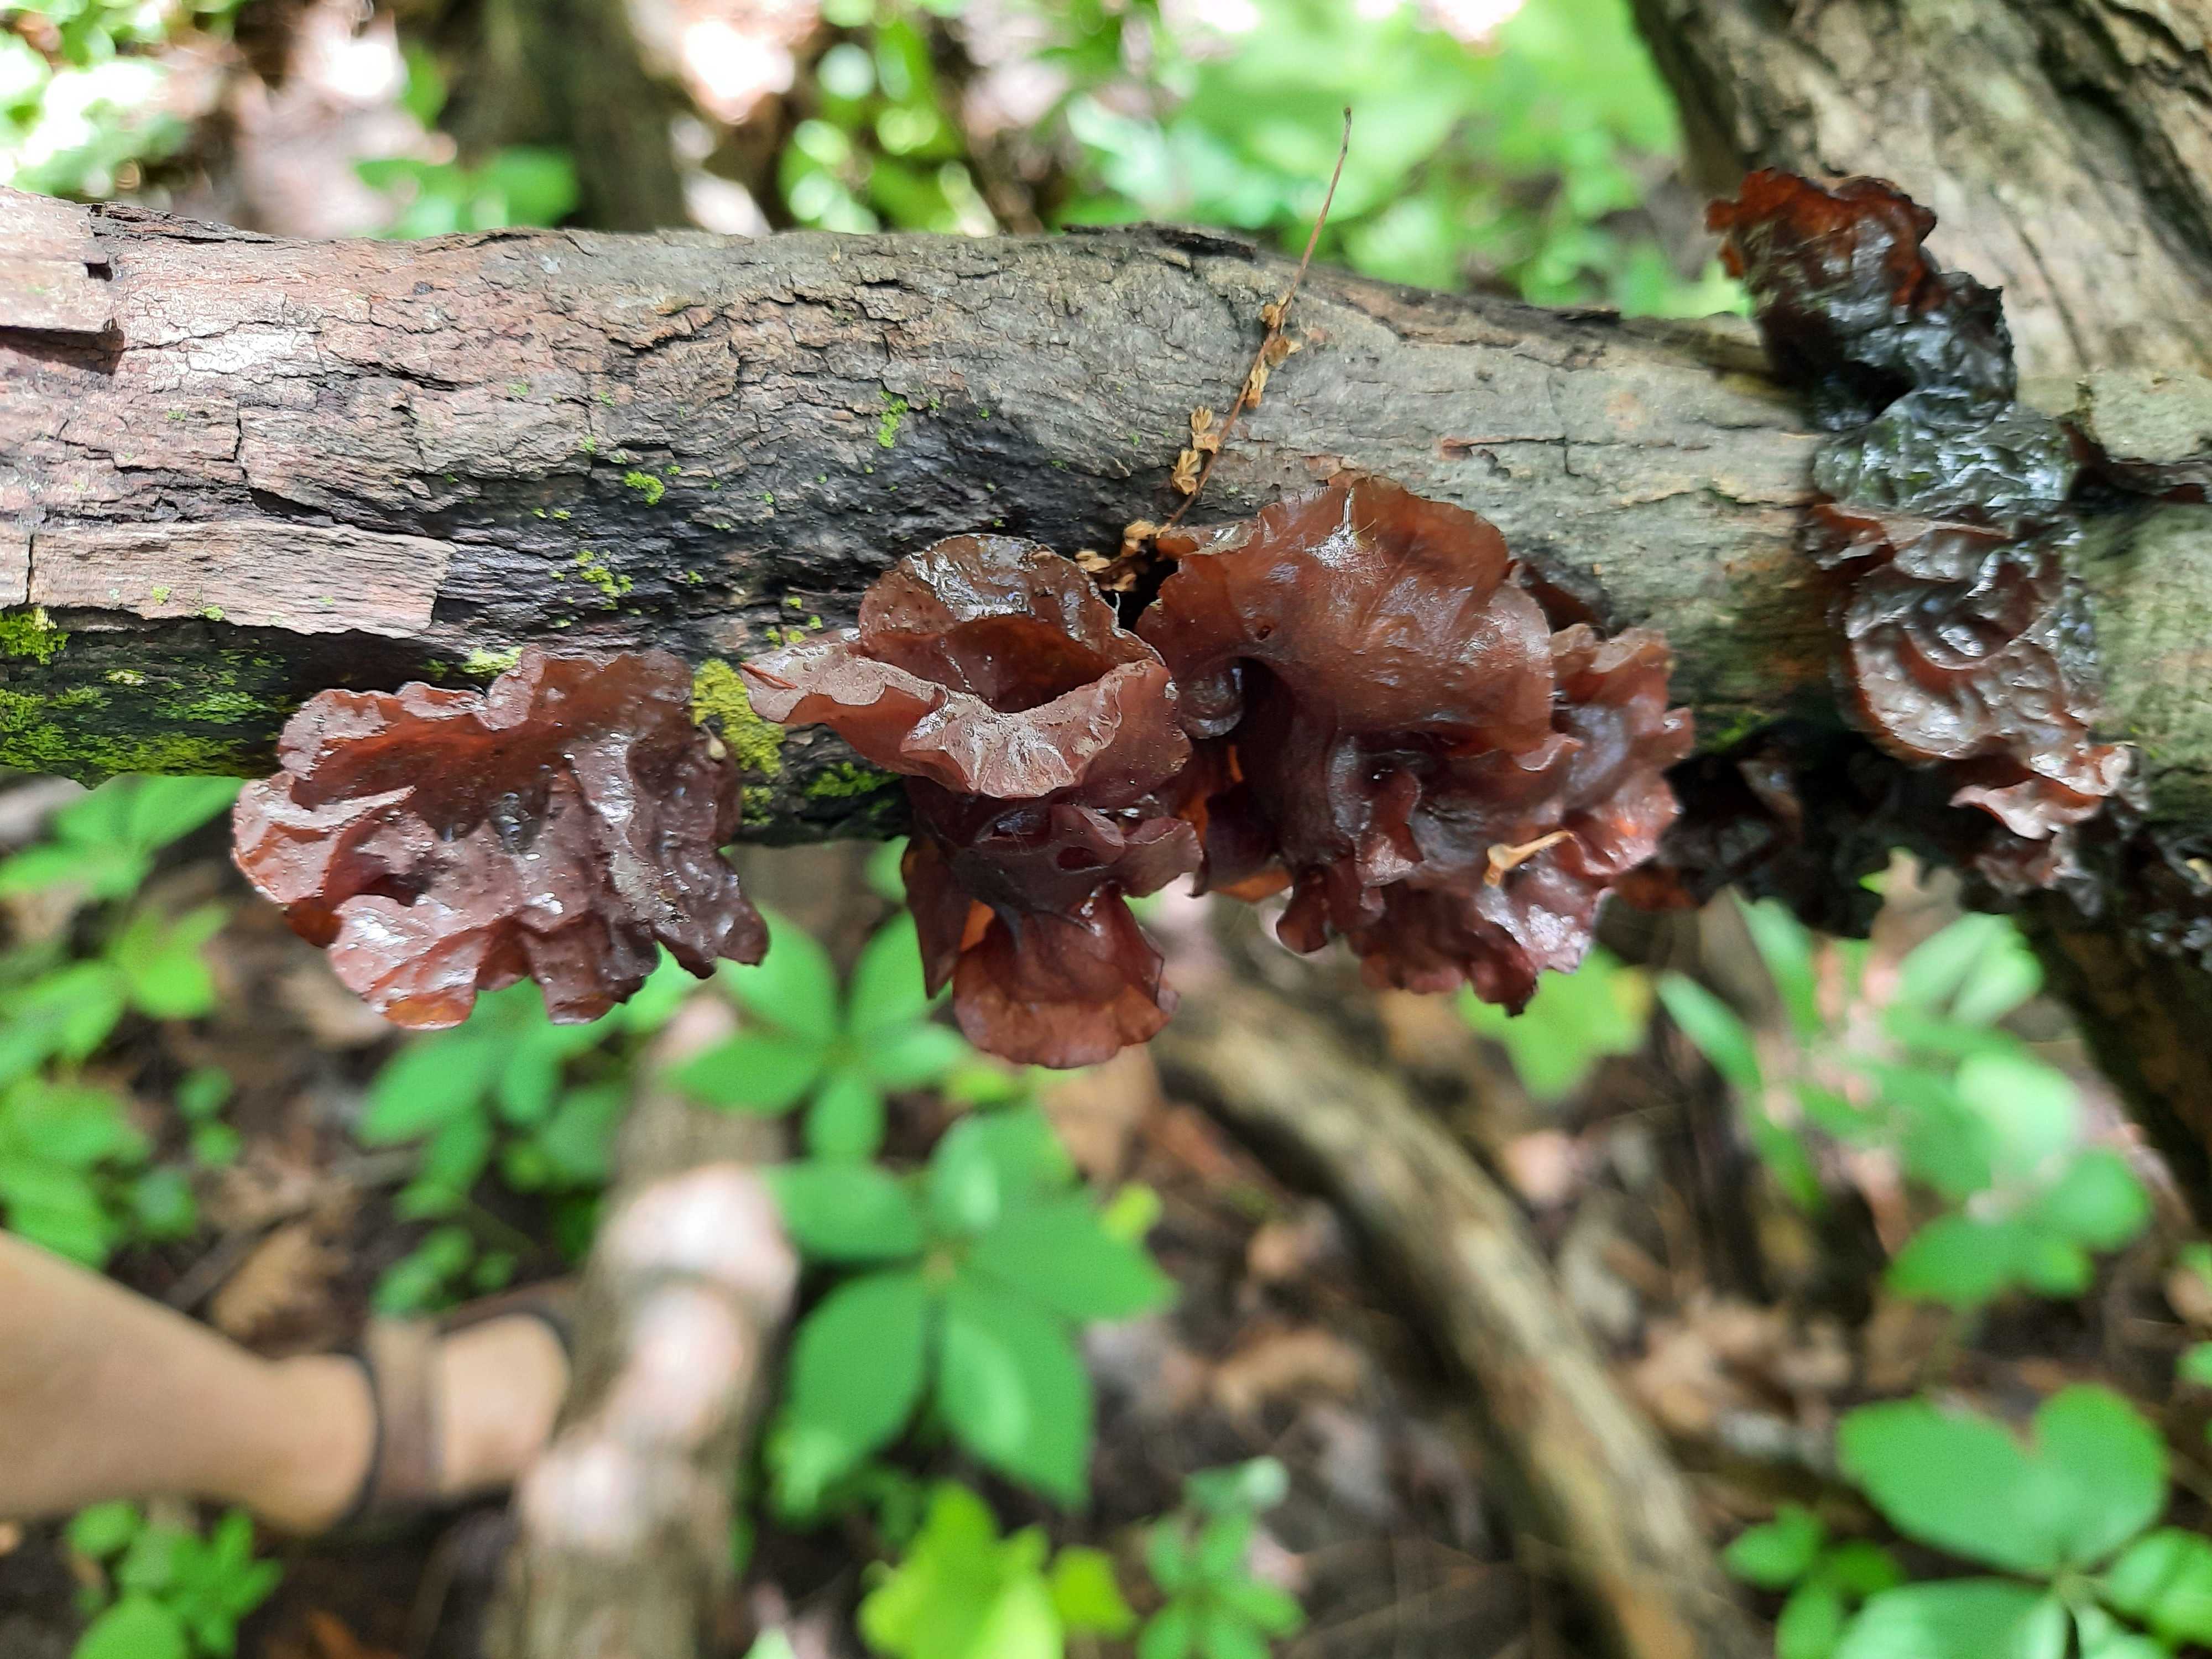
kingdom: Fungi
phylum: Basidiomycota
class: Tremellomycetes
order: Tremellales
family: Tremellaceae
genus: Phaeotremella
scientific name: Phaeotremella
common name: bævresvamp
